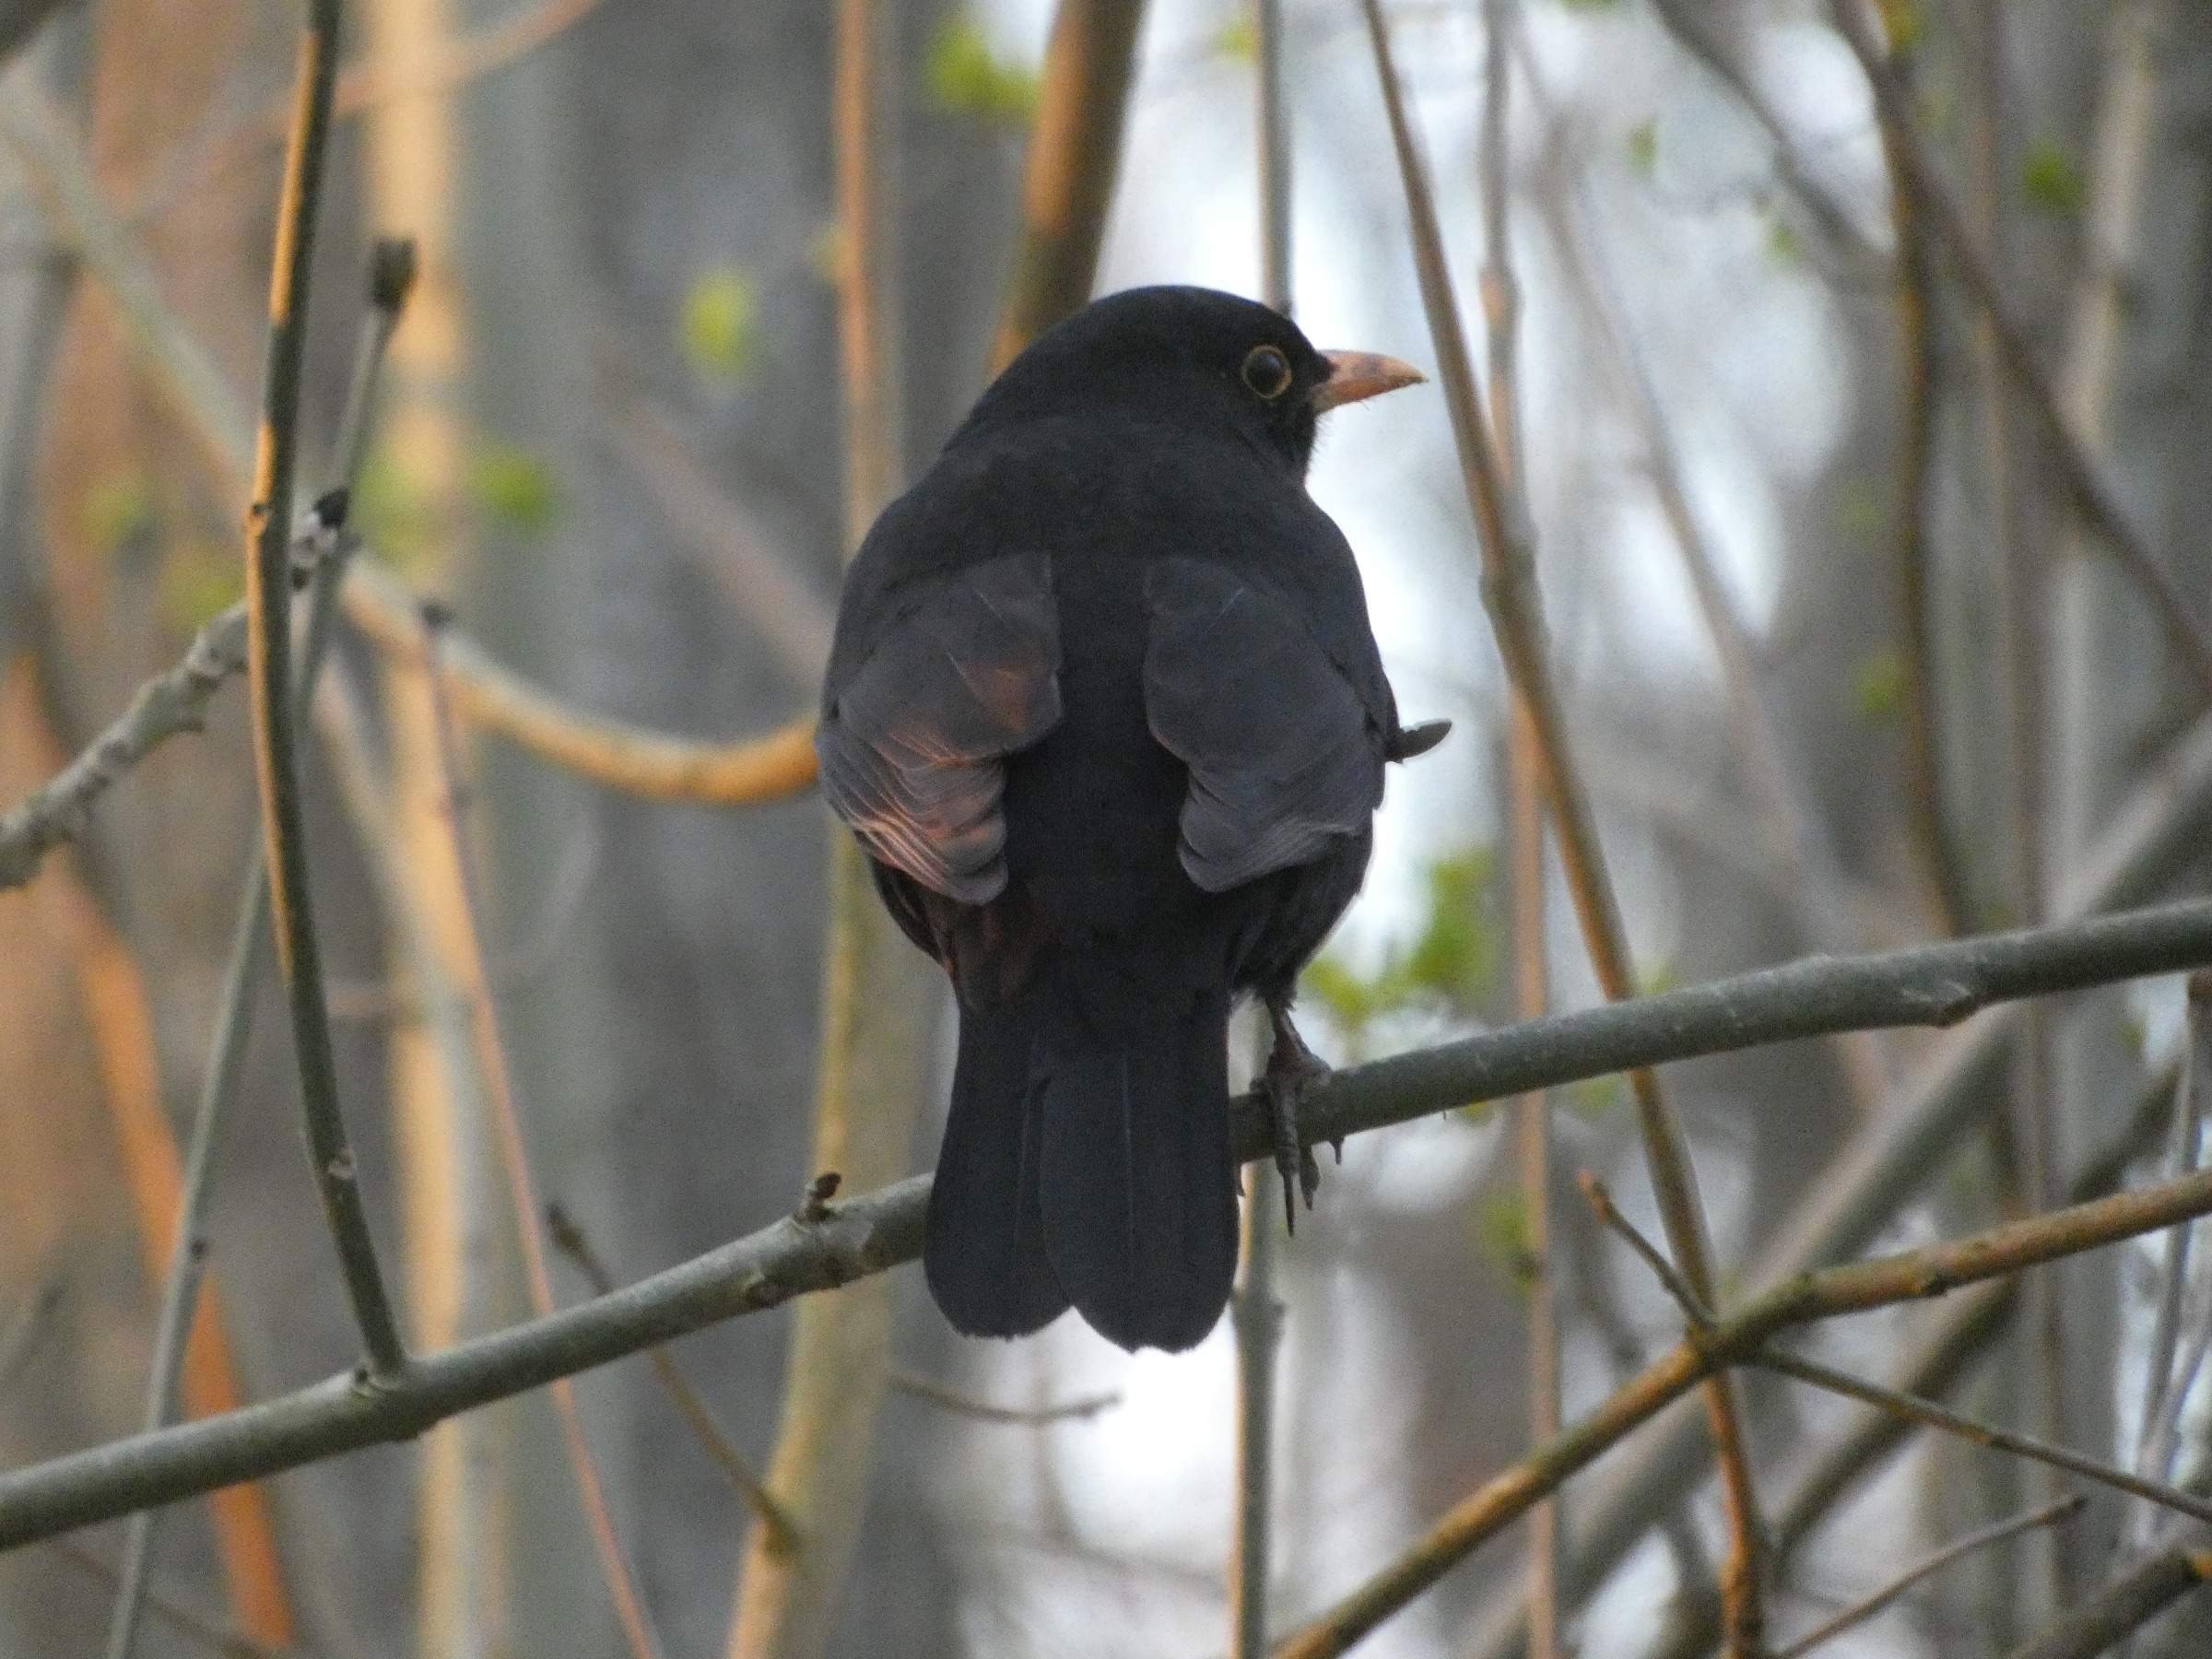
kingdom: Animalia
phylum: Chordata
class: Aves
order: Passeriformes
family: Turdidae
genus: Turdus
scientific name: Turdus merula
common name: Solsort
